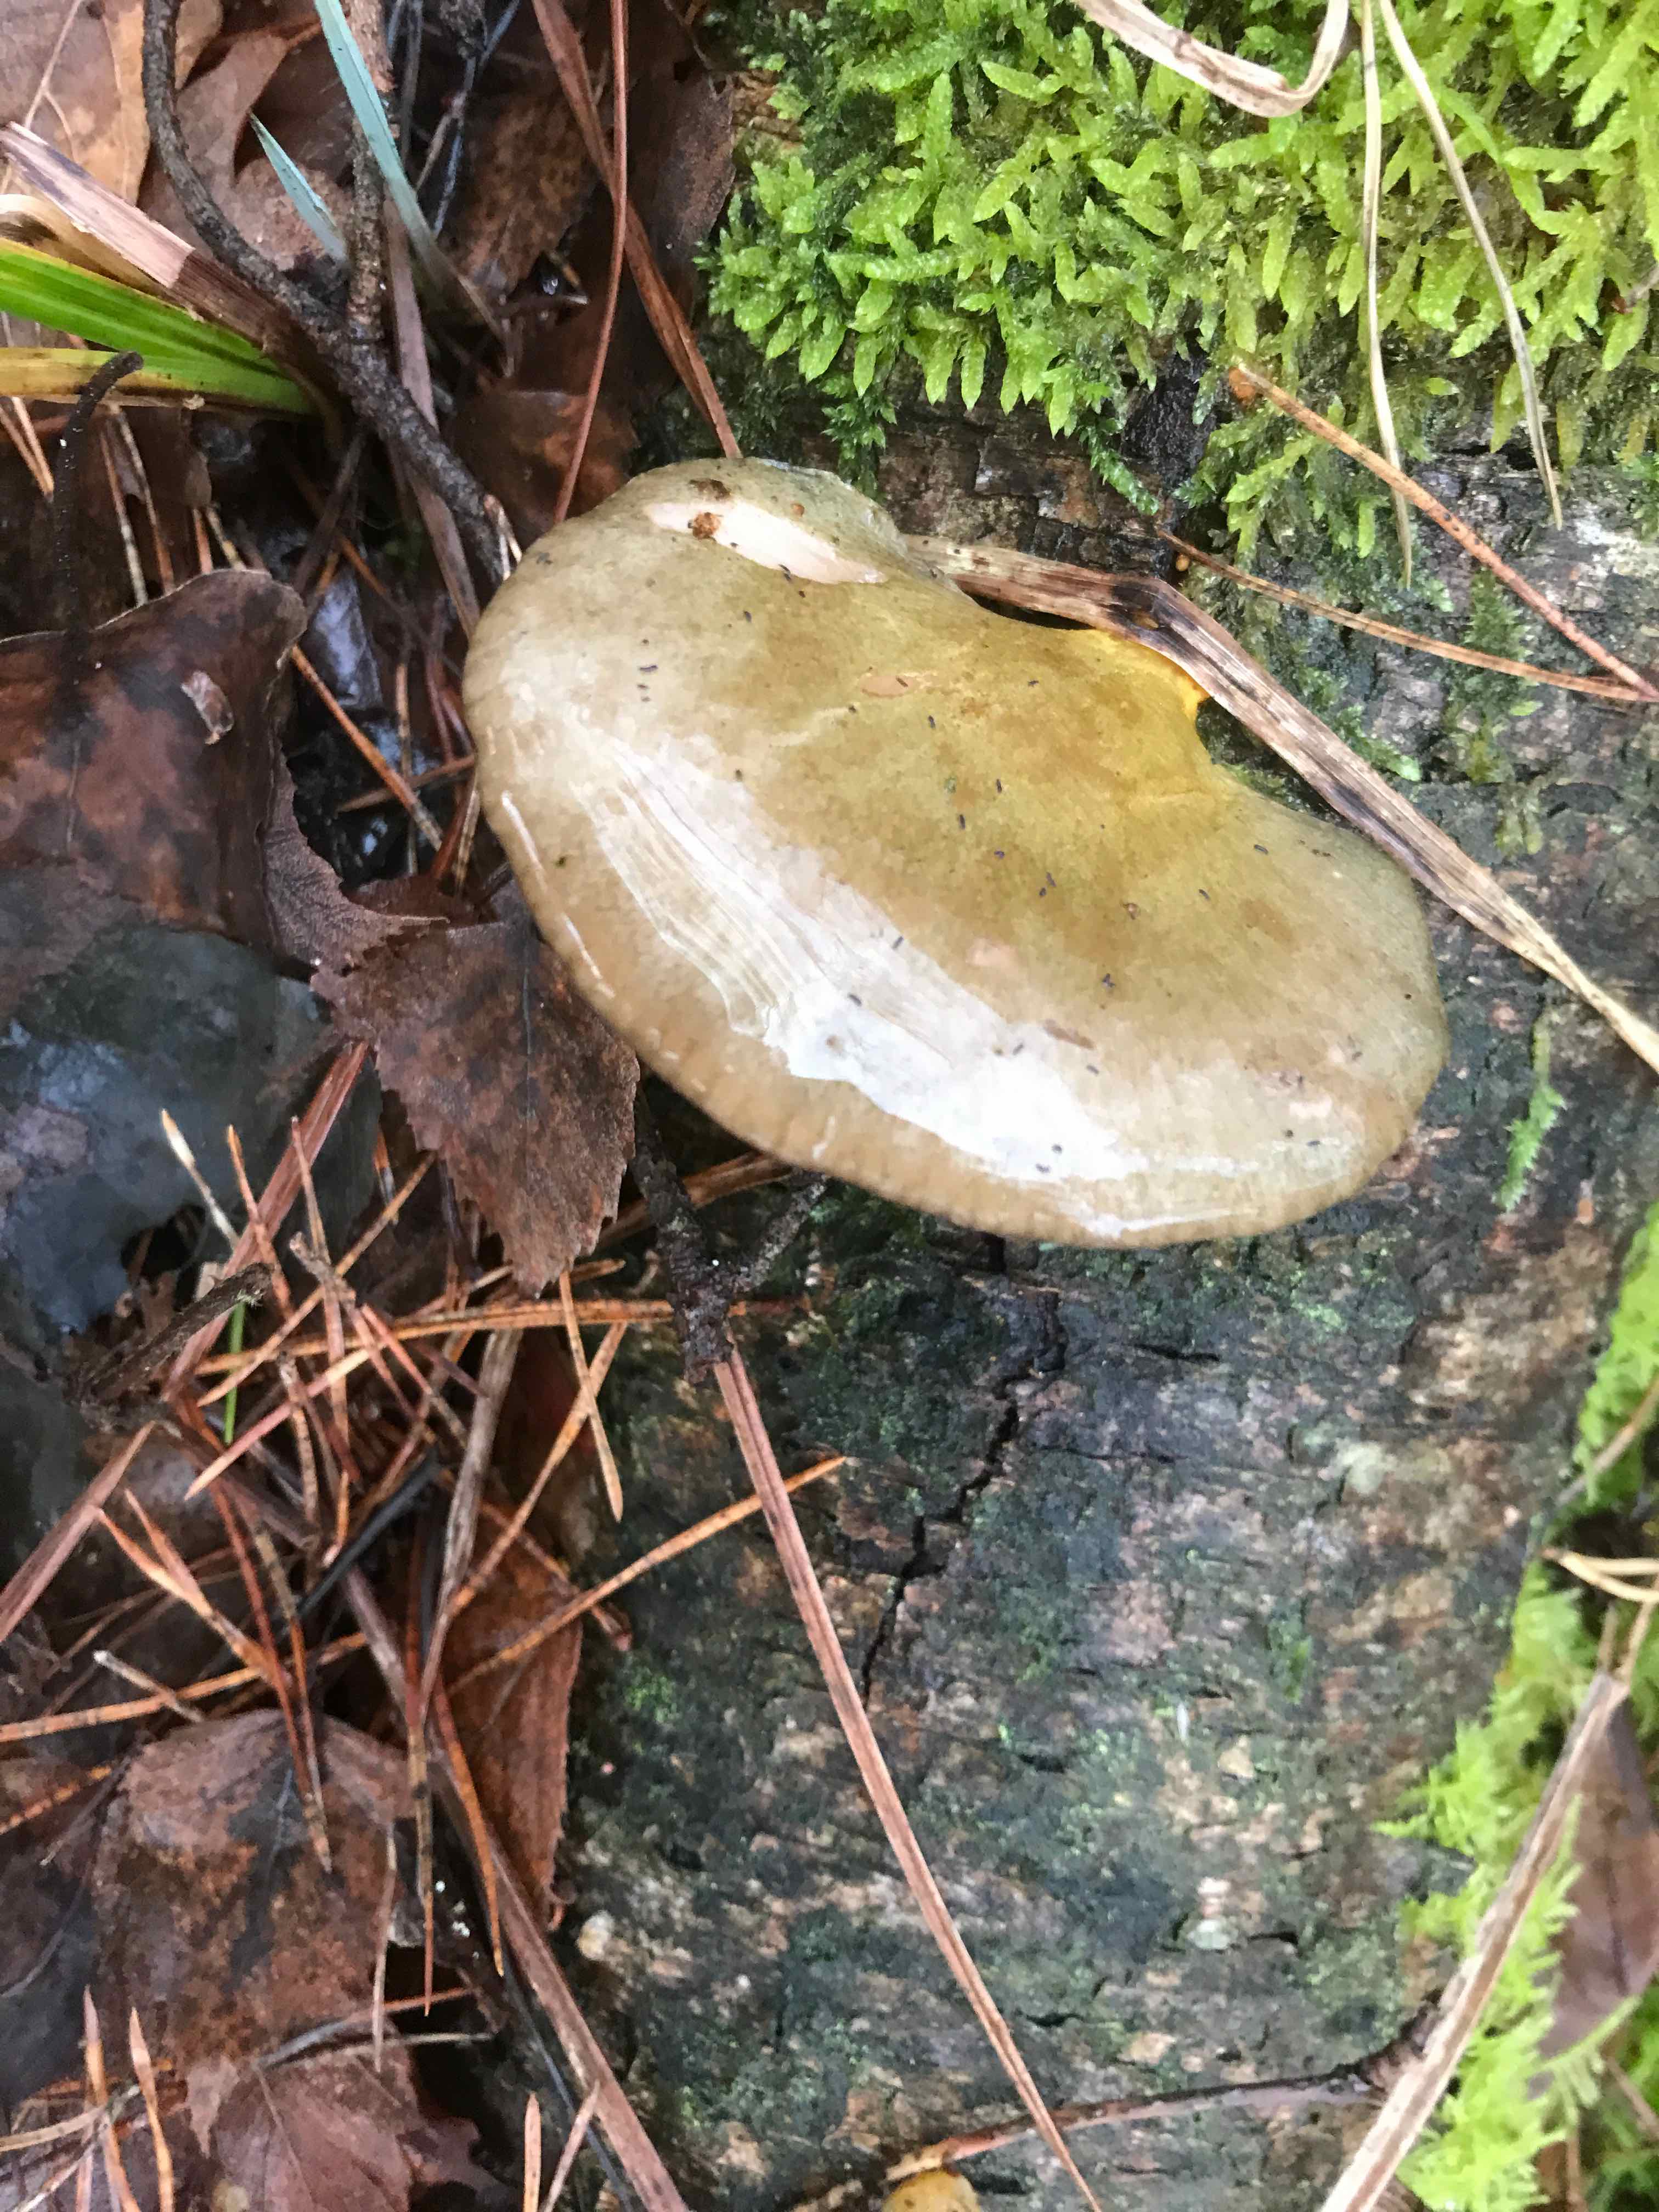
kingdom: Fungi
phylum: Basidiomycota
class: Agaricomycetes
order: Agaricales
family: Sarcomyxaceae
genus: Sarcomyxa
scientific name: Sarcomyxa serotina
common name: gummihat
